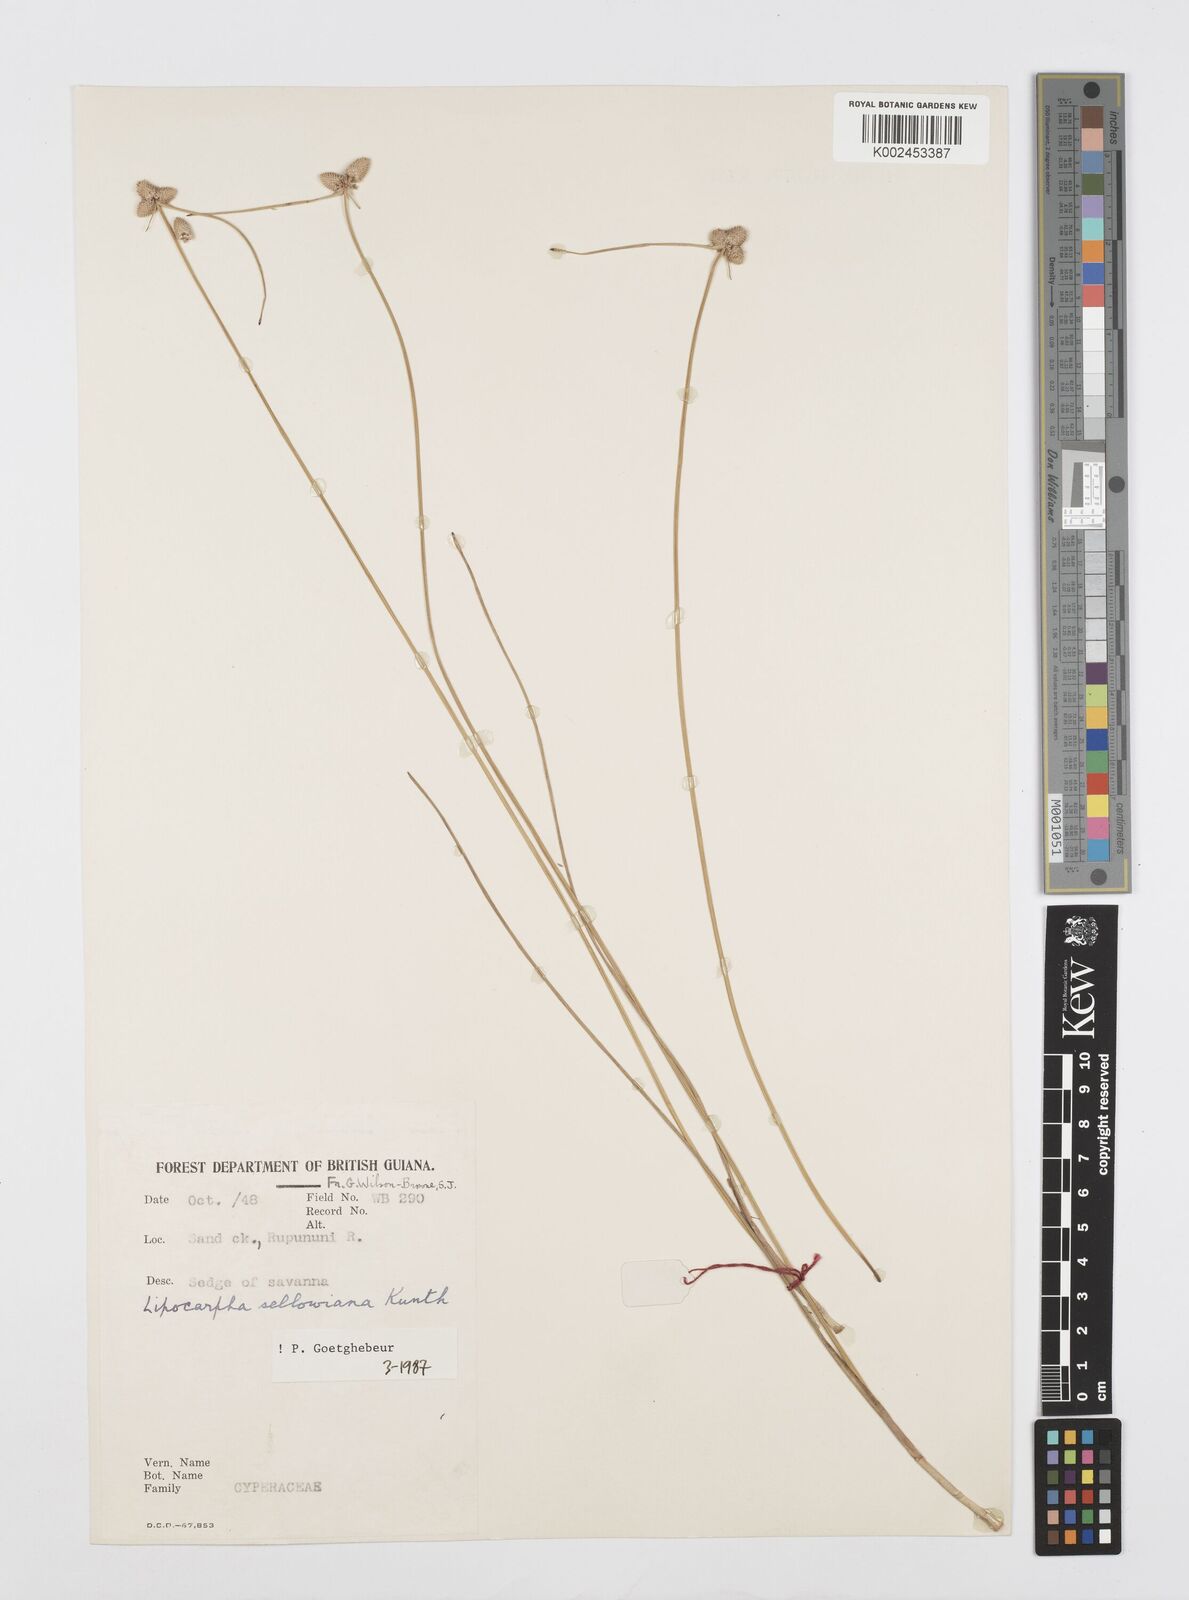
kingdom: Plantae
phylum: Tracheophyta
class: Liliopsida
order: Poales
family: Cyperaceae
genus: Cyperus
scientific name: Cyperus lanceolatus
